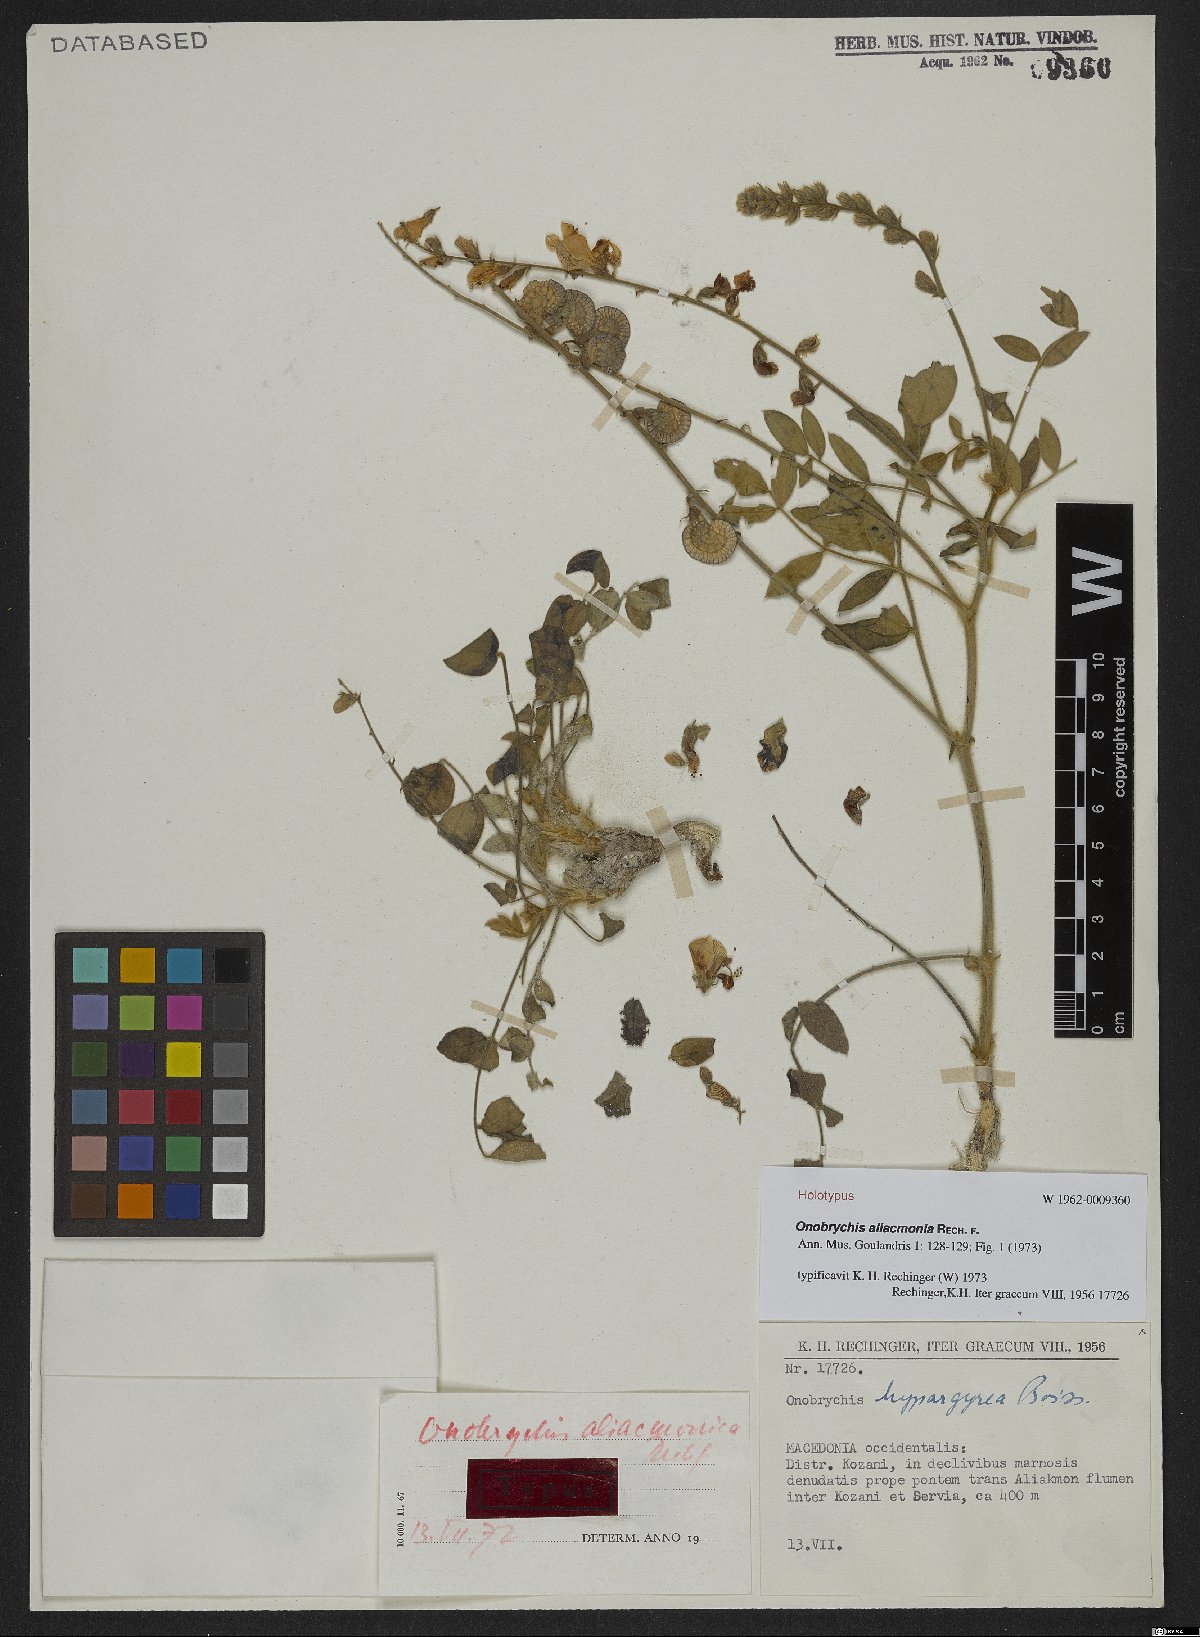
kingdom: Plantae
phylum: Tracheophyta
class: Magnoliopsida
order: Fabales
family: Fabaceae
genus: Onobrychis
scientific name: Onobrychis aliacmonia
